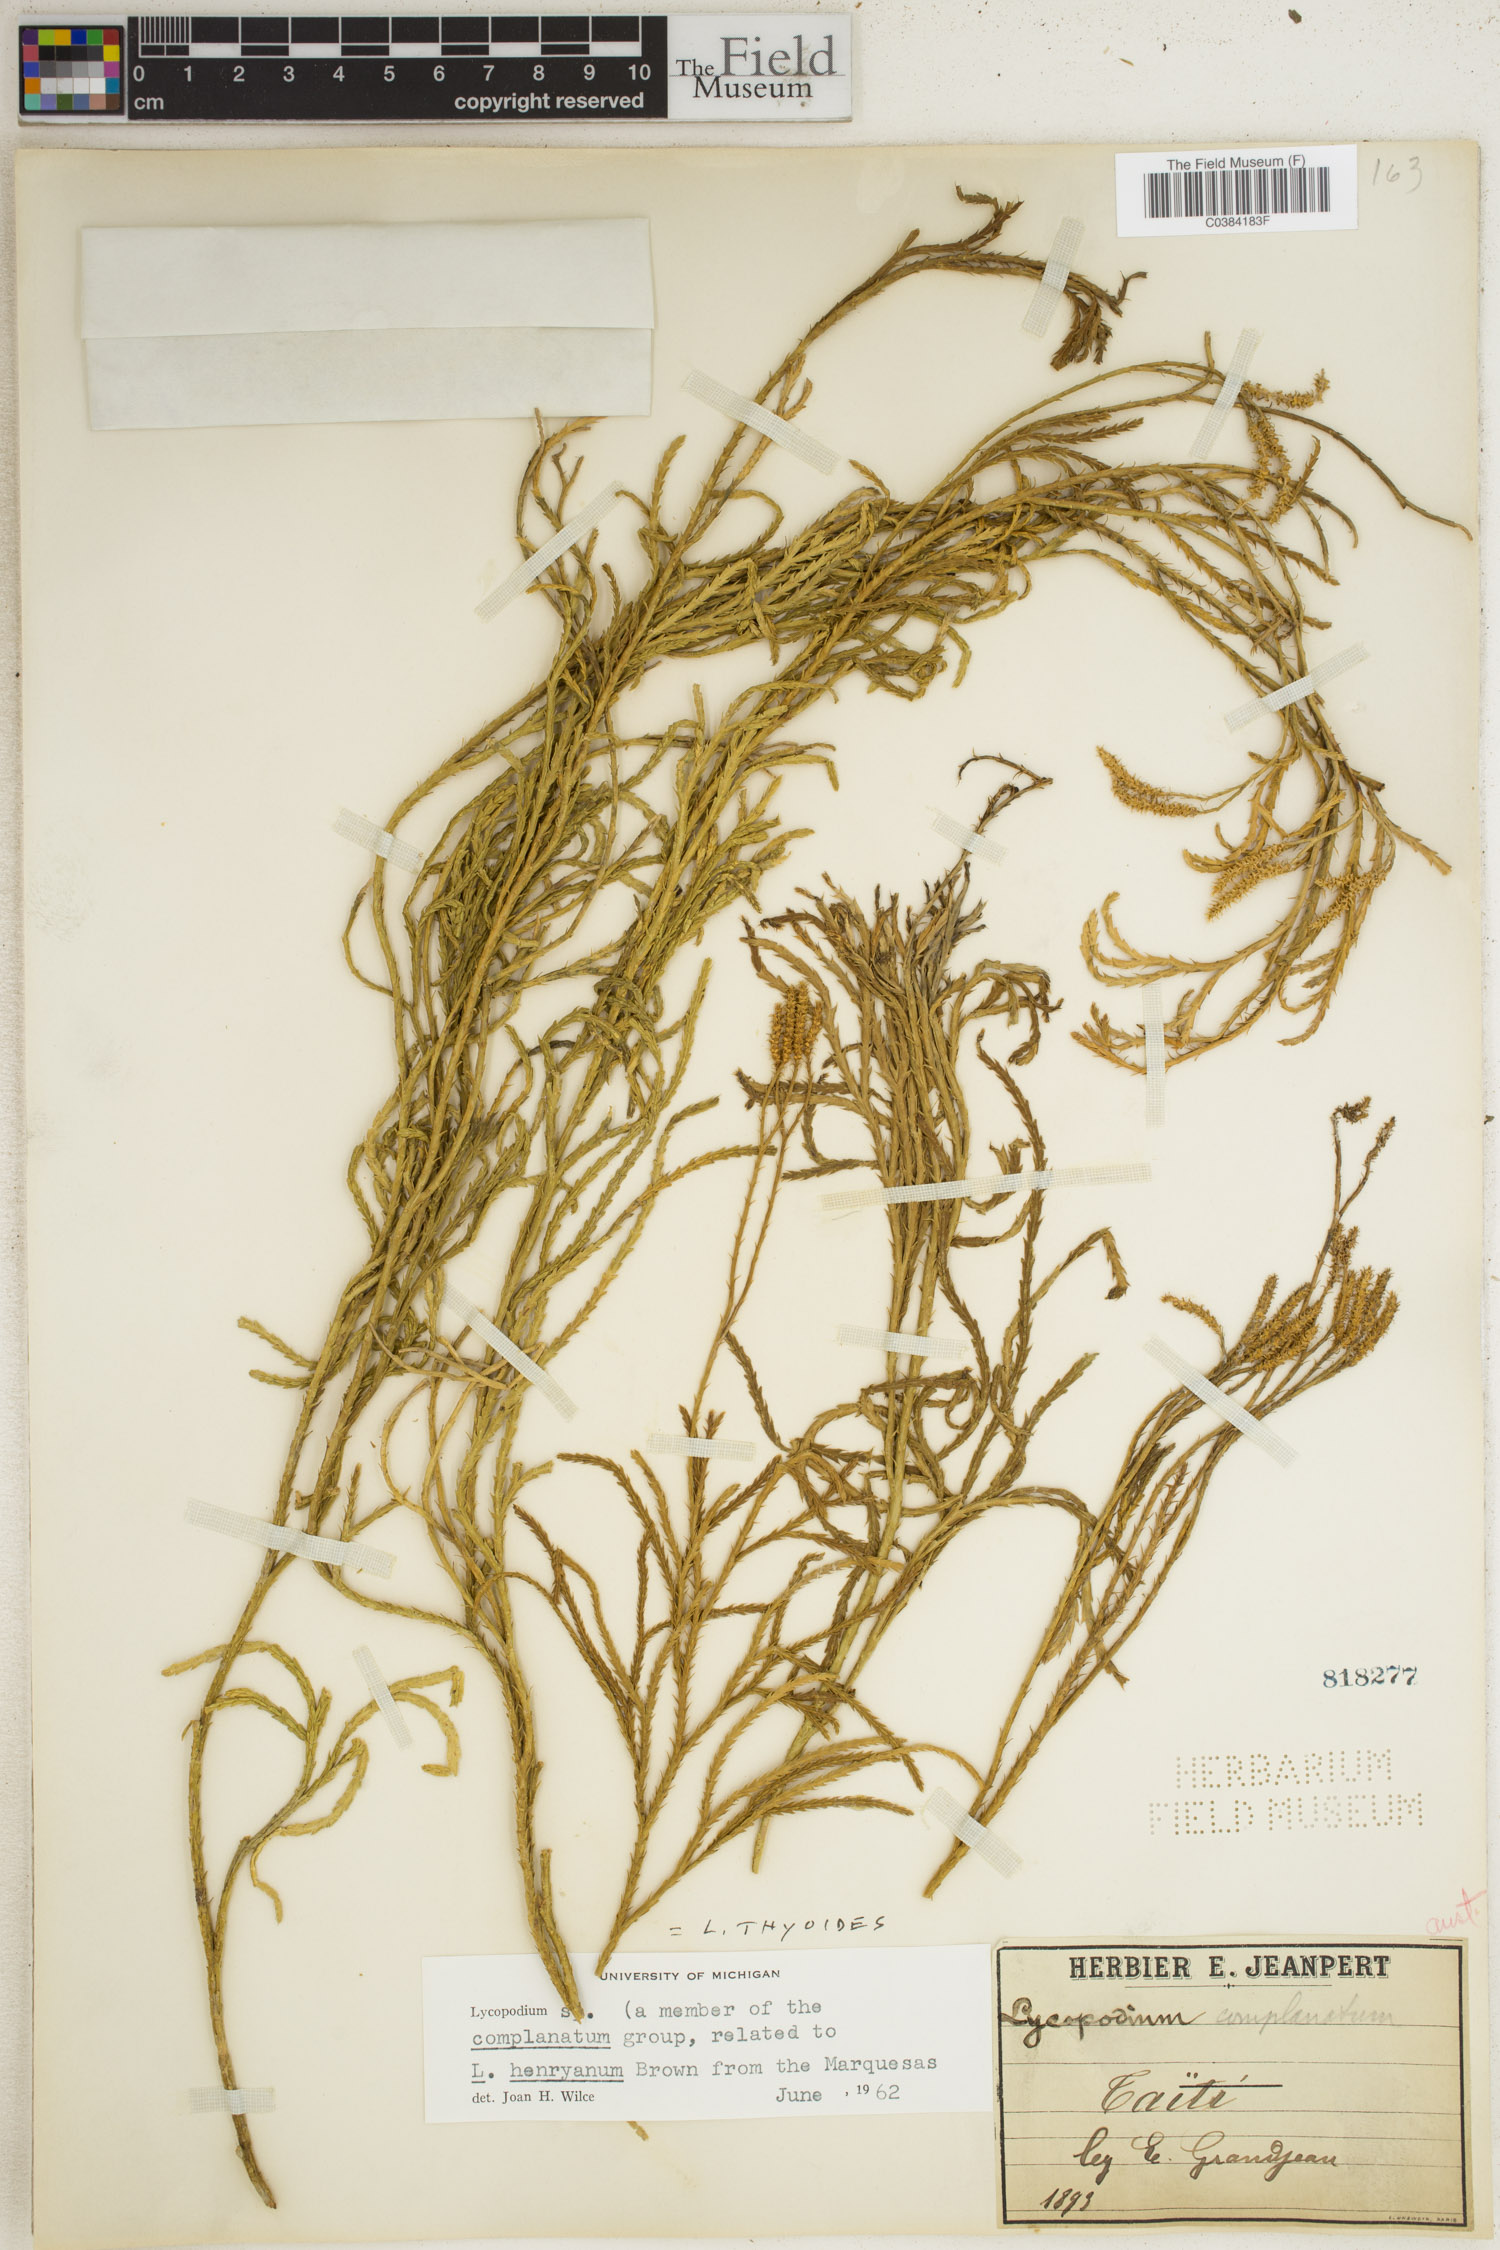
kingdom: Plantae
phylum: Tracheophyta
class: Lycopodiopsida
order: Lycopodiales
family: Lycopodiaceae
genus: Diphasiastrum
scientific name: Diphasiastrum thyoides
